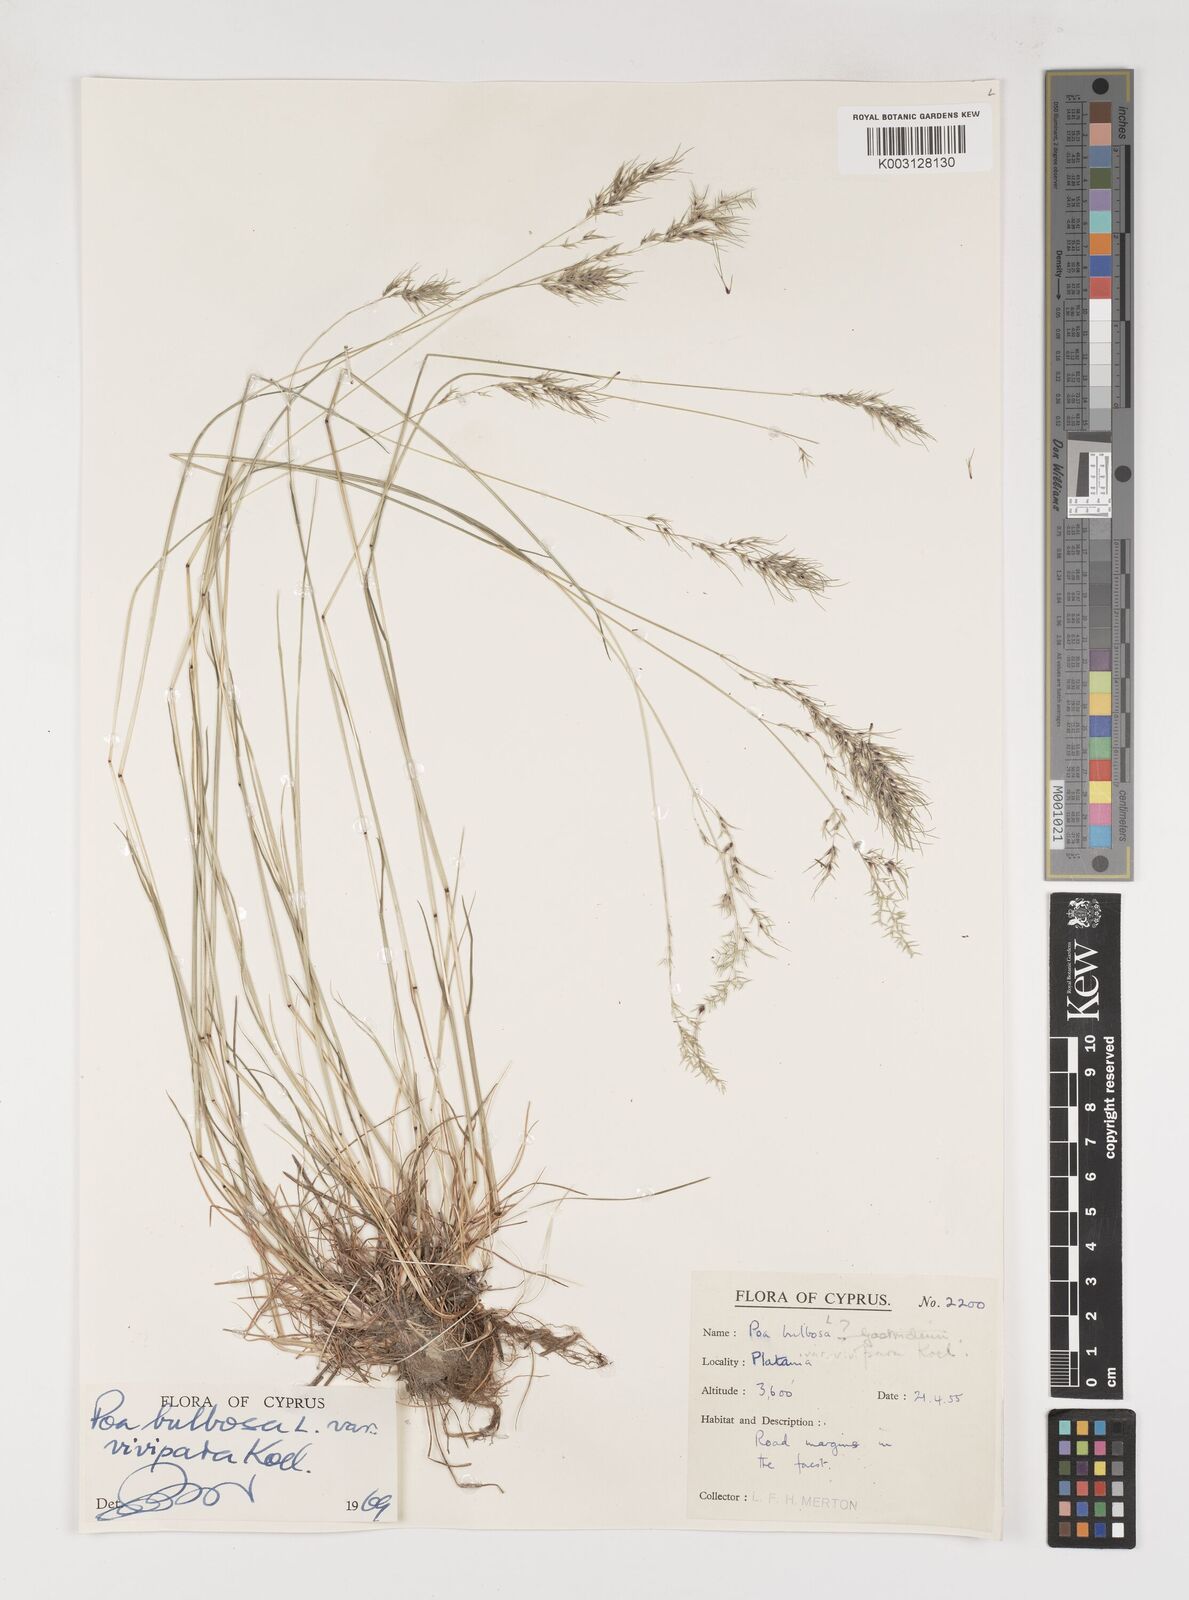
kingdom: Plantae
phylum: Tracheophyta
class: Liliopsida
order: Poales
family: Poaceae
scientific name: Poaceae
